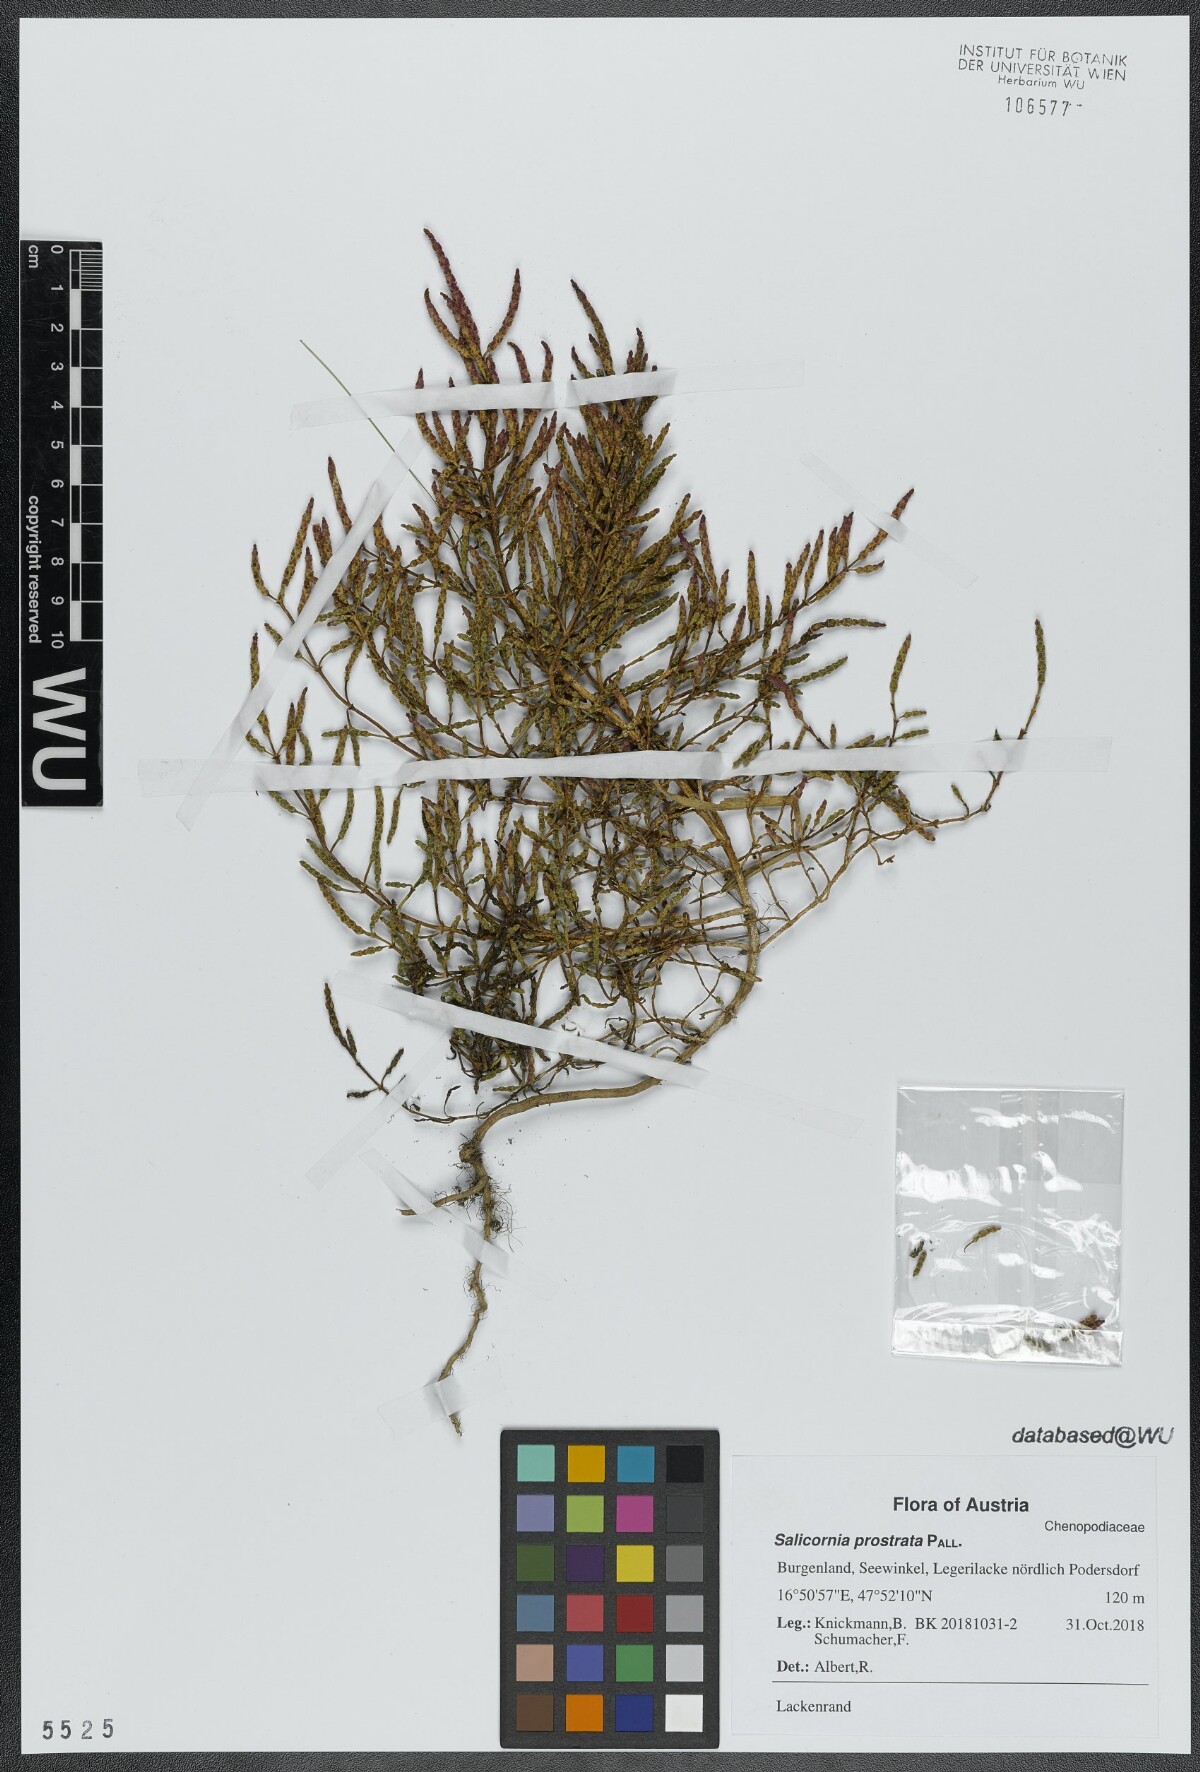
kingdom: Plantae
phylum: Tracheophyta
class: Magnoliopsida
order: Caryophyllales
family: Amaranthaceae
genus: Salicornia
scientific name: Salicornia perennans
